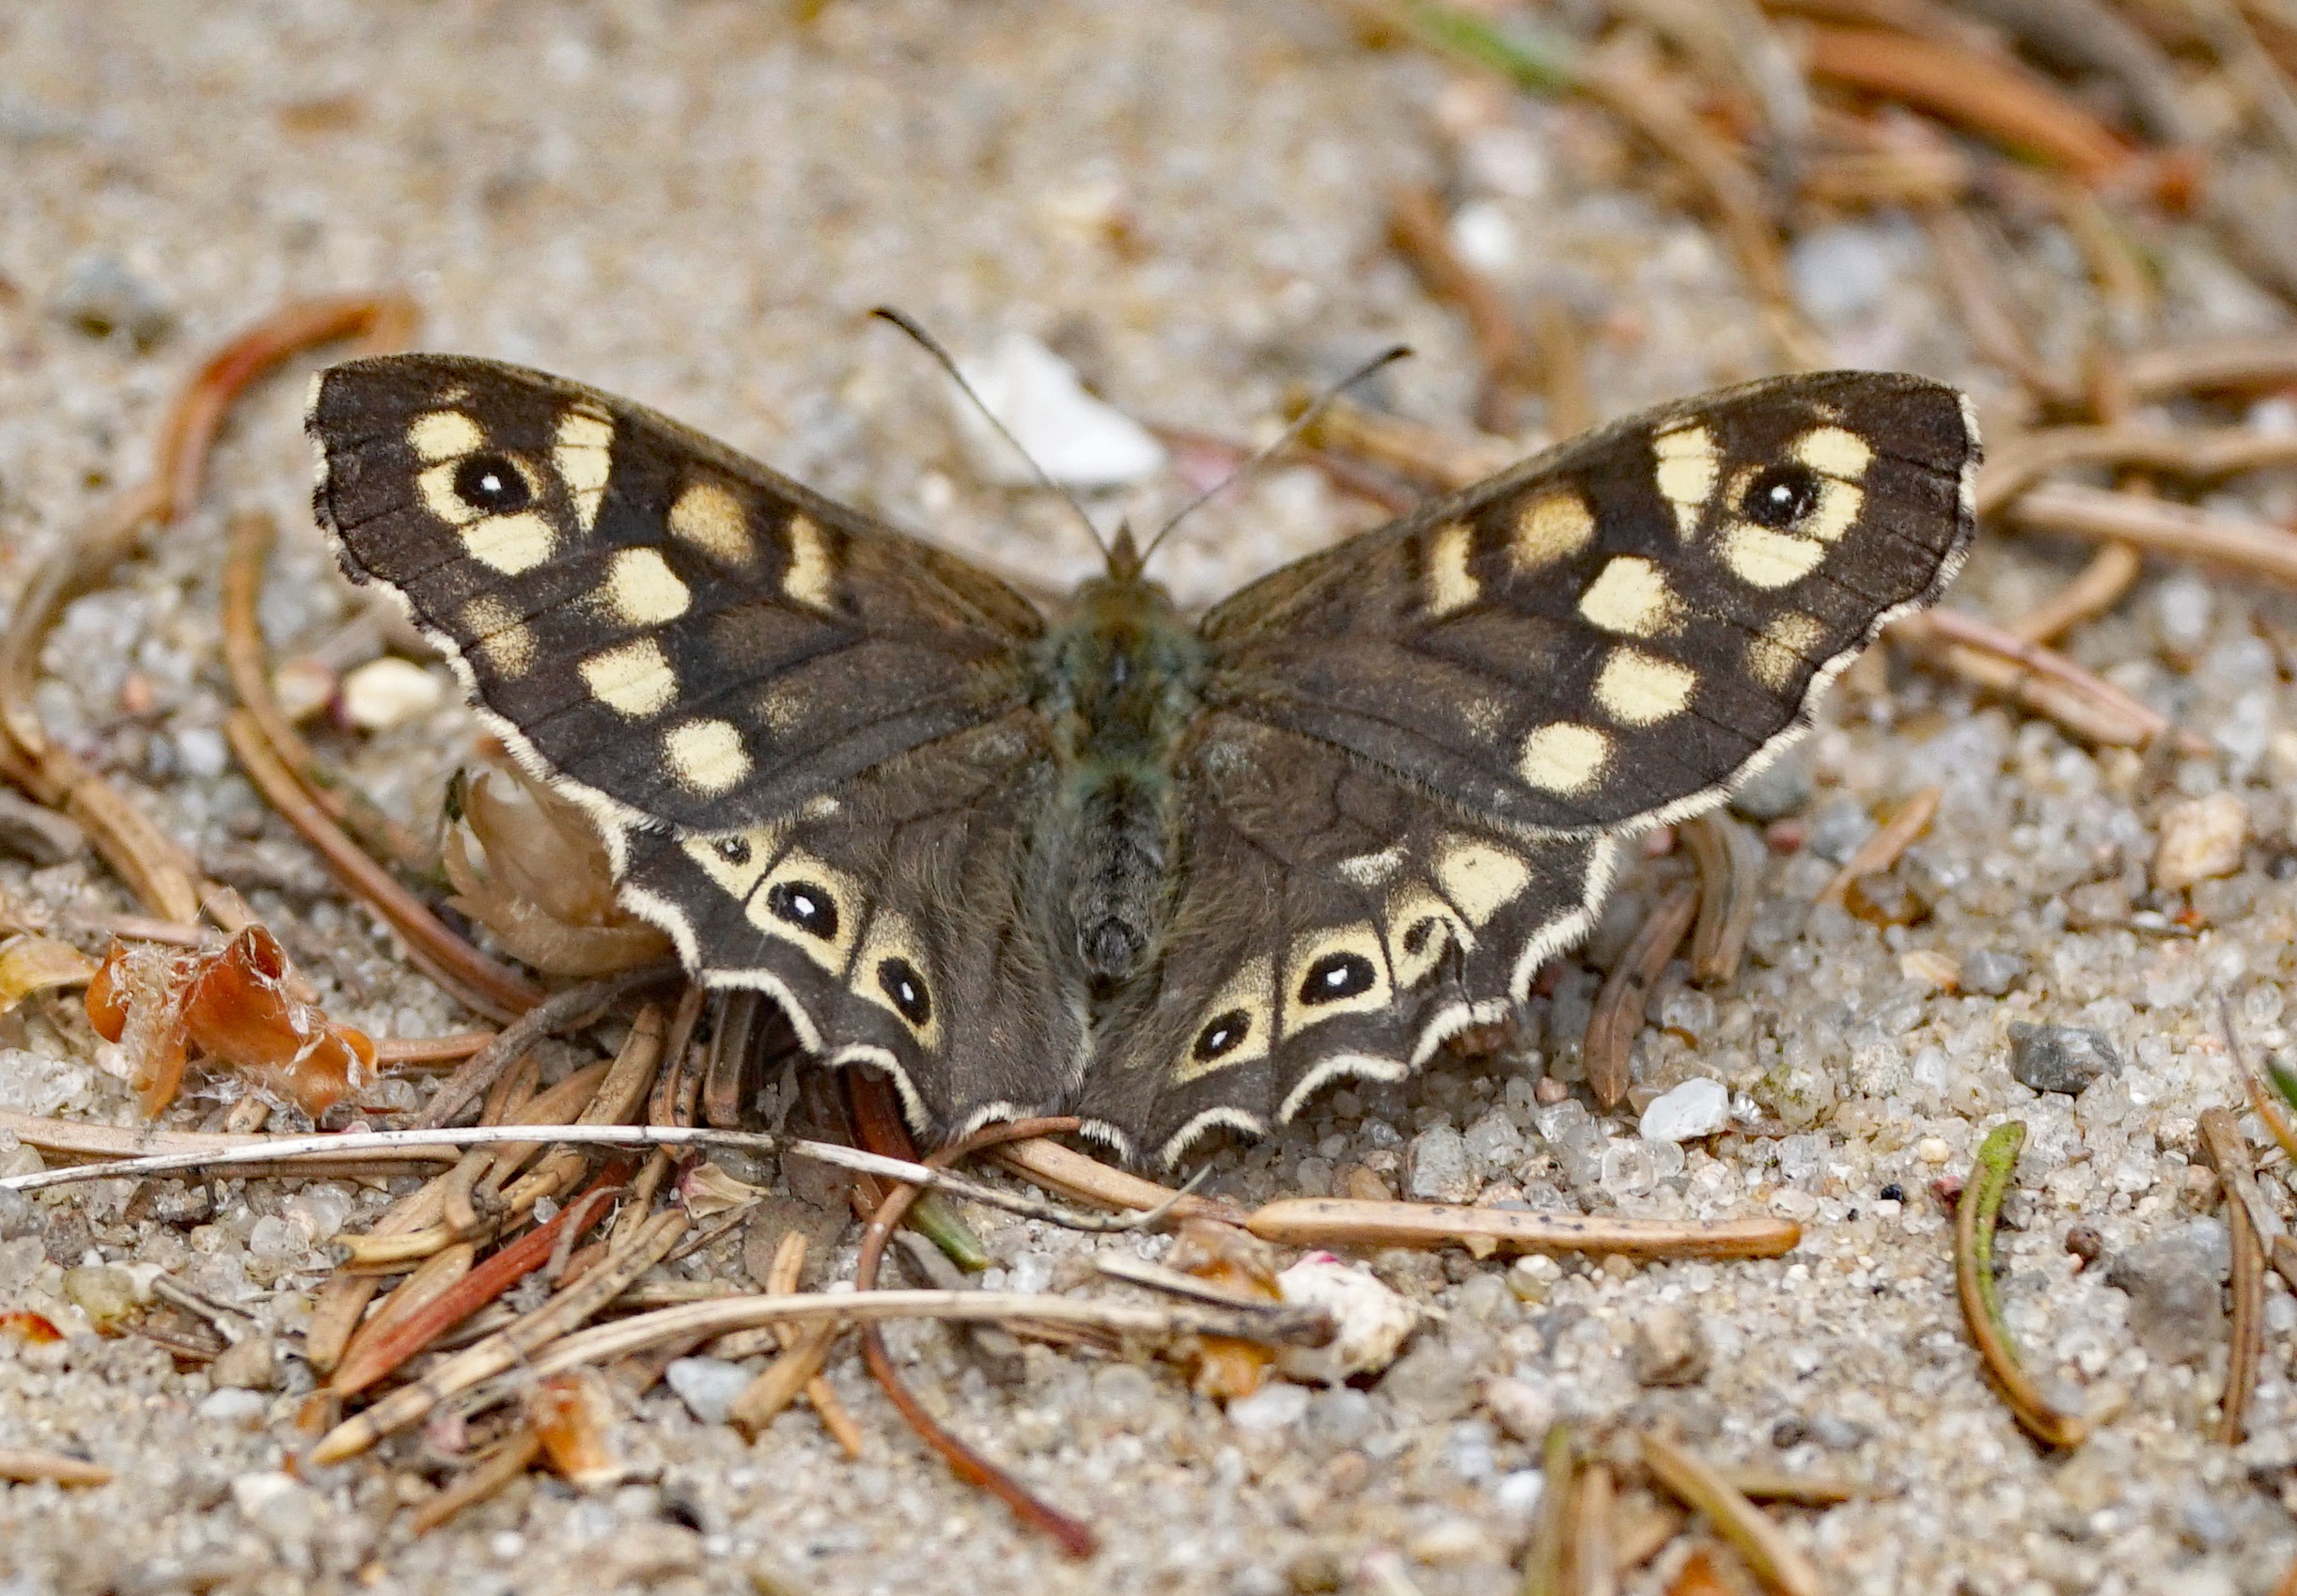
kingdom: Animalia
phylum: Arthropoda
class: Insecta
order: Lepidoptera
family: Nymphalidae
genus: Pararge
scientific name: Pararge aegeria
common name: Skovrandøje
